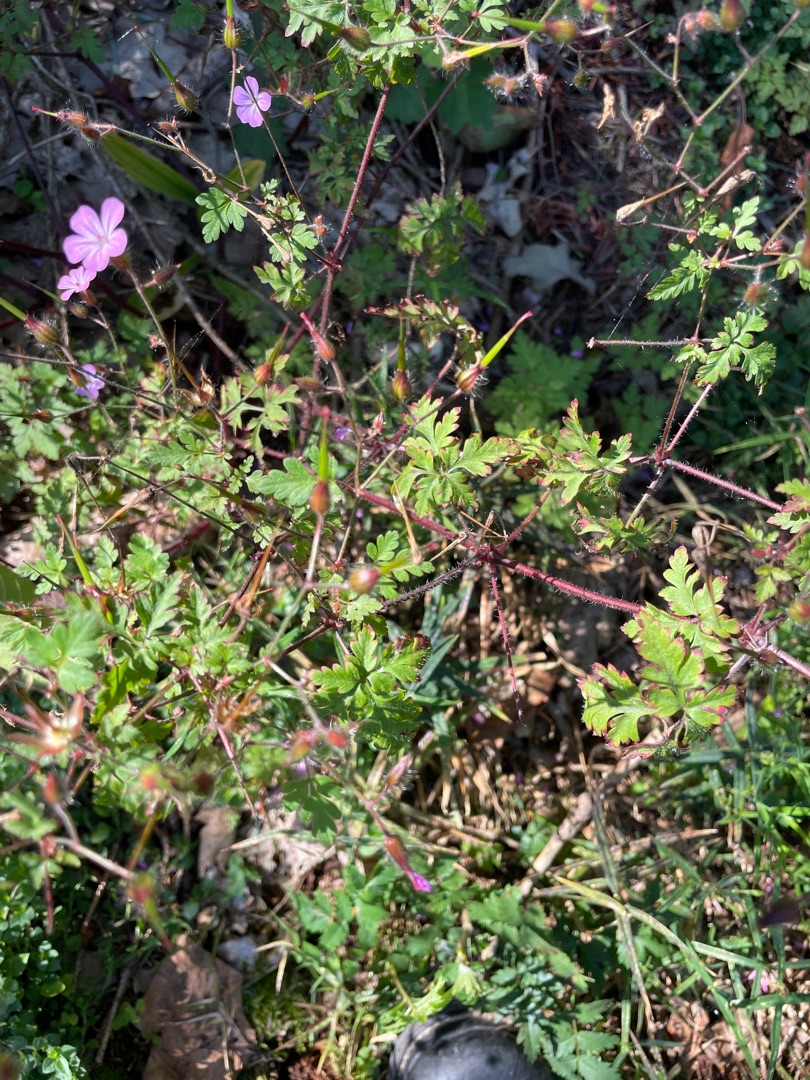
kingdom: Plantae
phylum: Tracheophyta
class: Magnoliopsida
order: Geraniales
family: Geraniaceae
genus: Geranium
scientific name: Geranium robertianum
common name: Stinkende storkenæb
